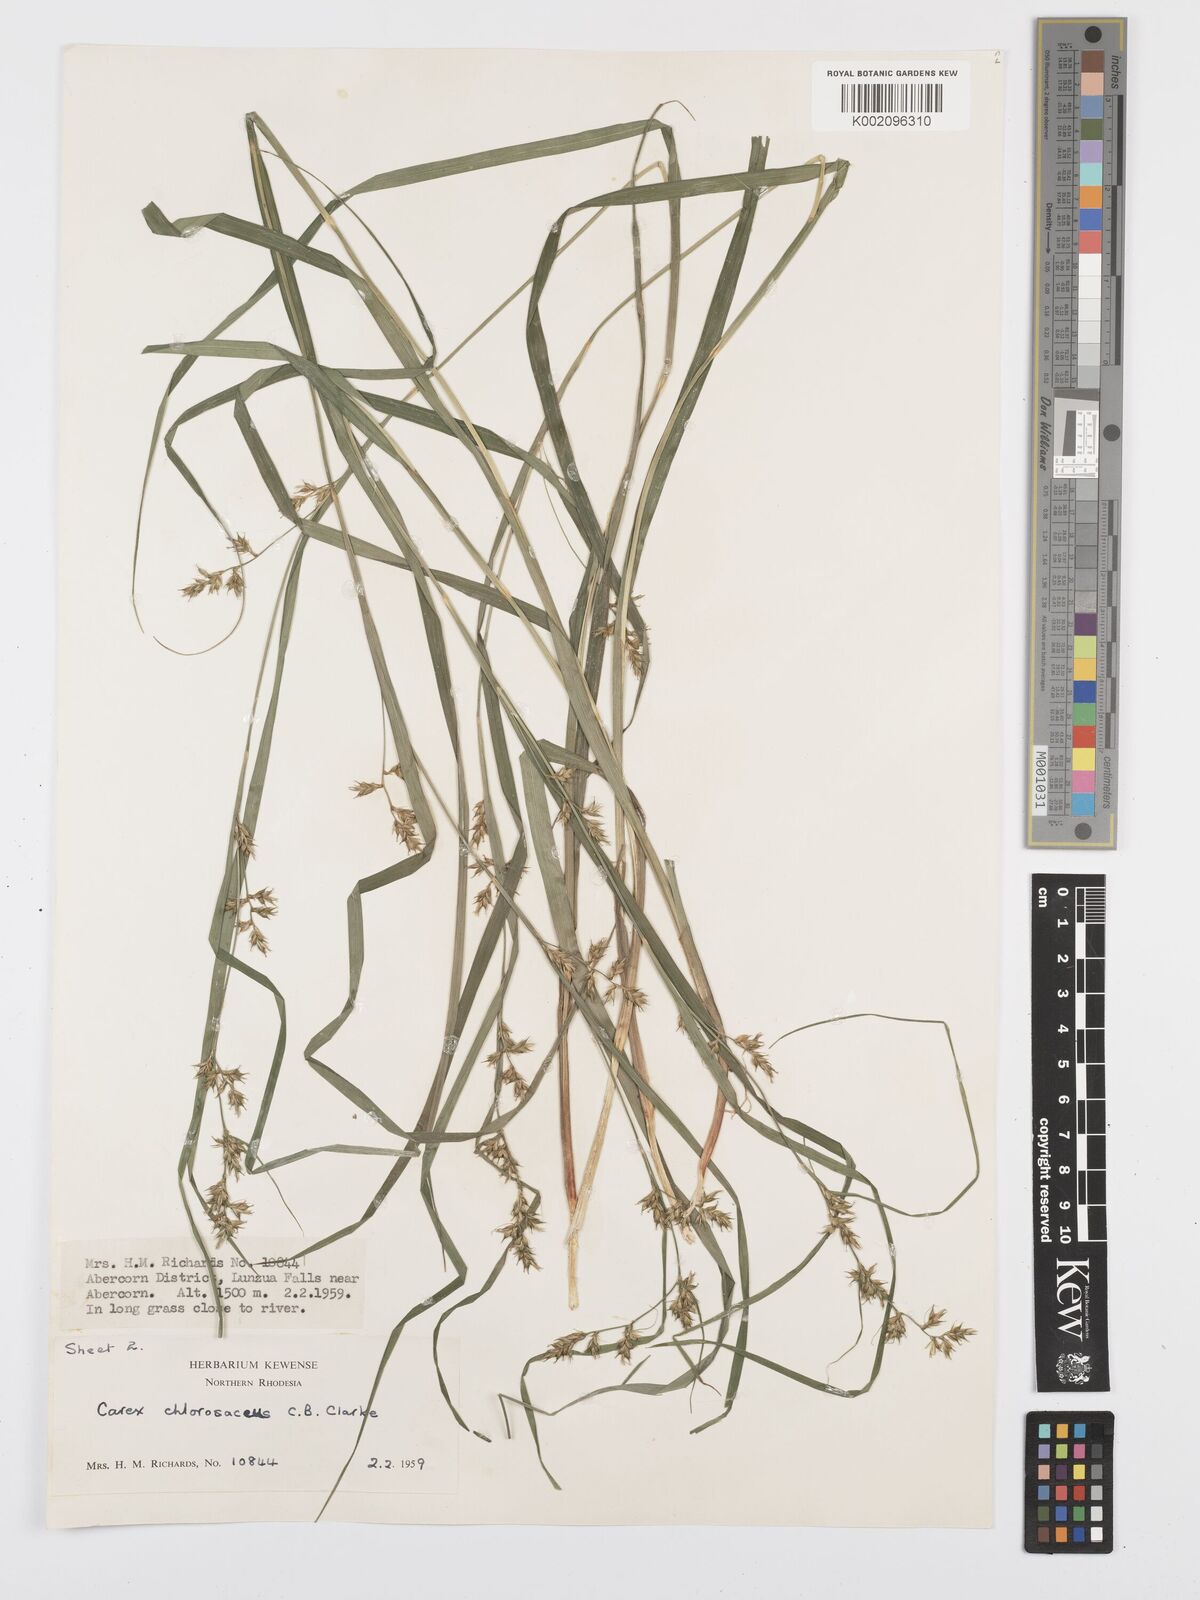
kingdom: Plantae
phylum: Tracheophyta
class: Liliopsida
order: Poales
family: Cyperaceae
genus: Carex
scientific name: Carex chlorosaccus
